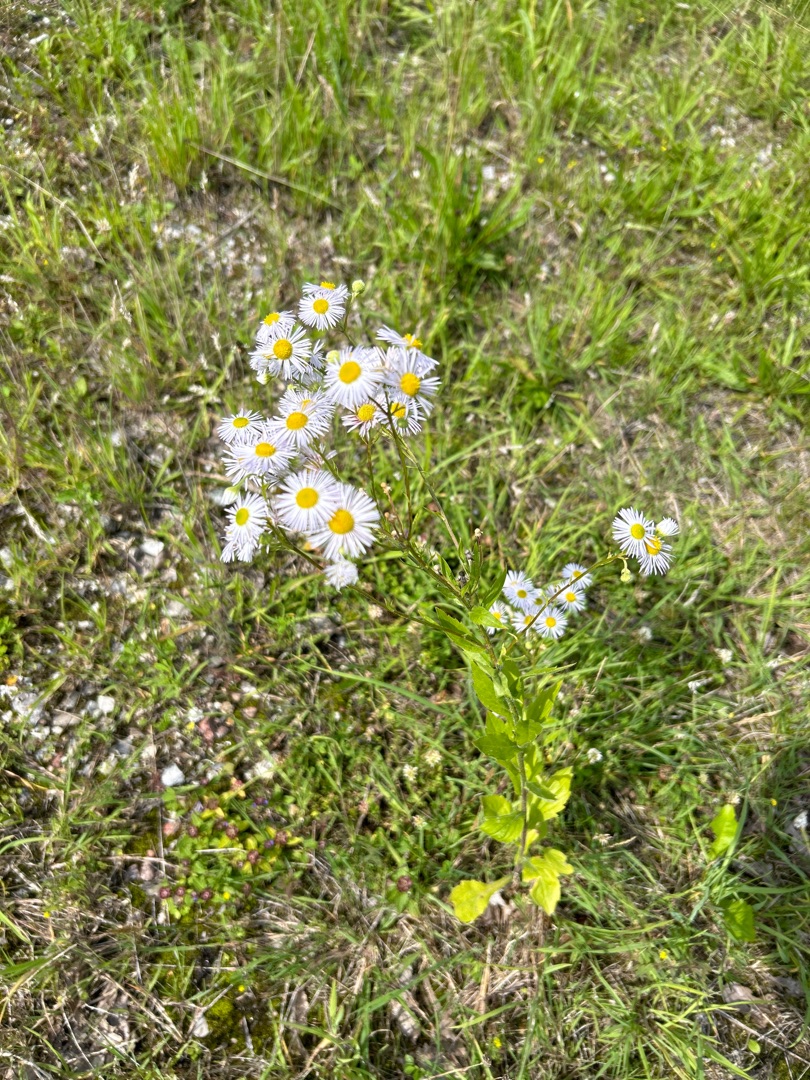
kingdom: Plantae
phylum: Tracheophyta
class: Magnoliopsida
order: Asterales
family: Asteraceae
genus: Erigeron
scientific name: Erigeron annuus
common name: Smalstråle
